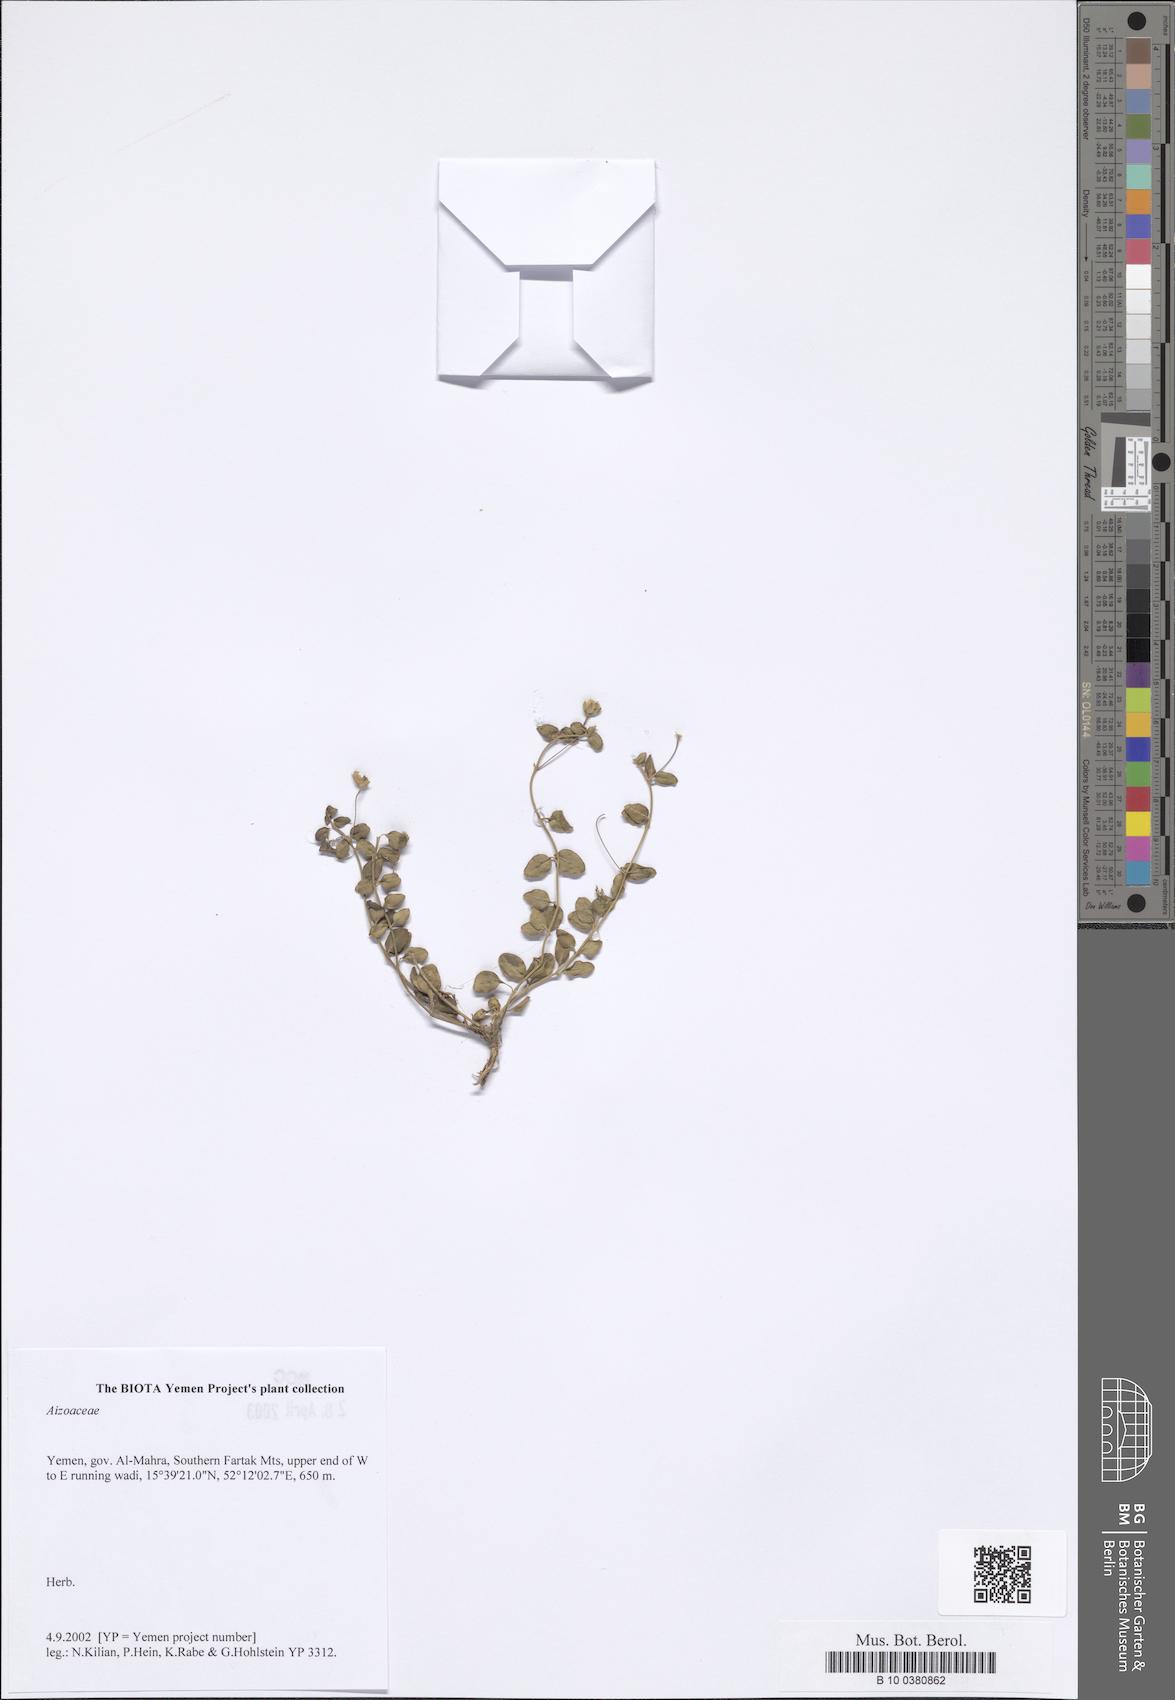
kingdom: Plantae
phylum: Tracheophyta
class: Magnoliopsida
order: Caryophyllales
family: Aizoaceae
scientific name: Aizoaceae
